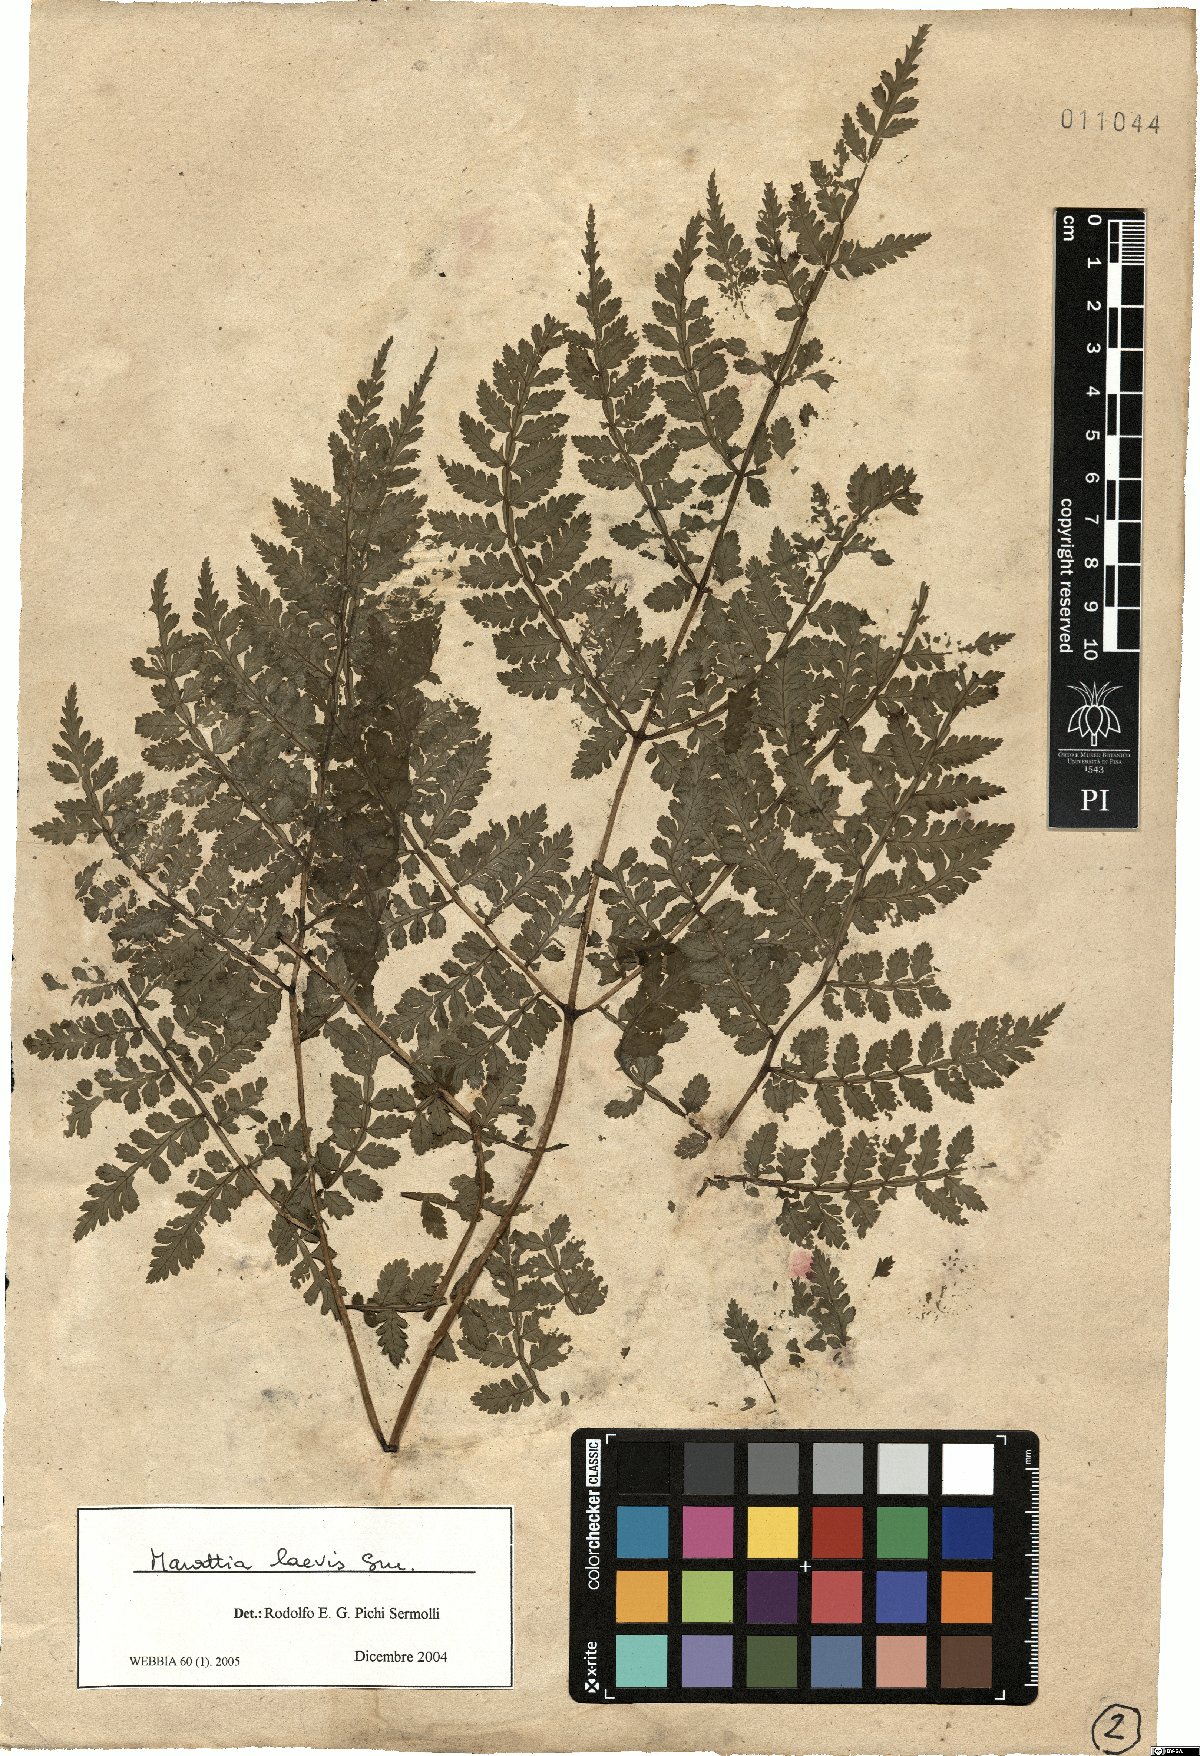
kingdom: Plantae
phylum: Tracheophyta
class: Polypodiopsida
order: Marattiales
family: Marattiaceae
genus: Eupodium
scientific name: Eupodium laeve
